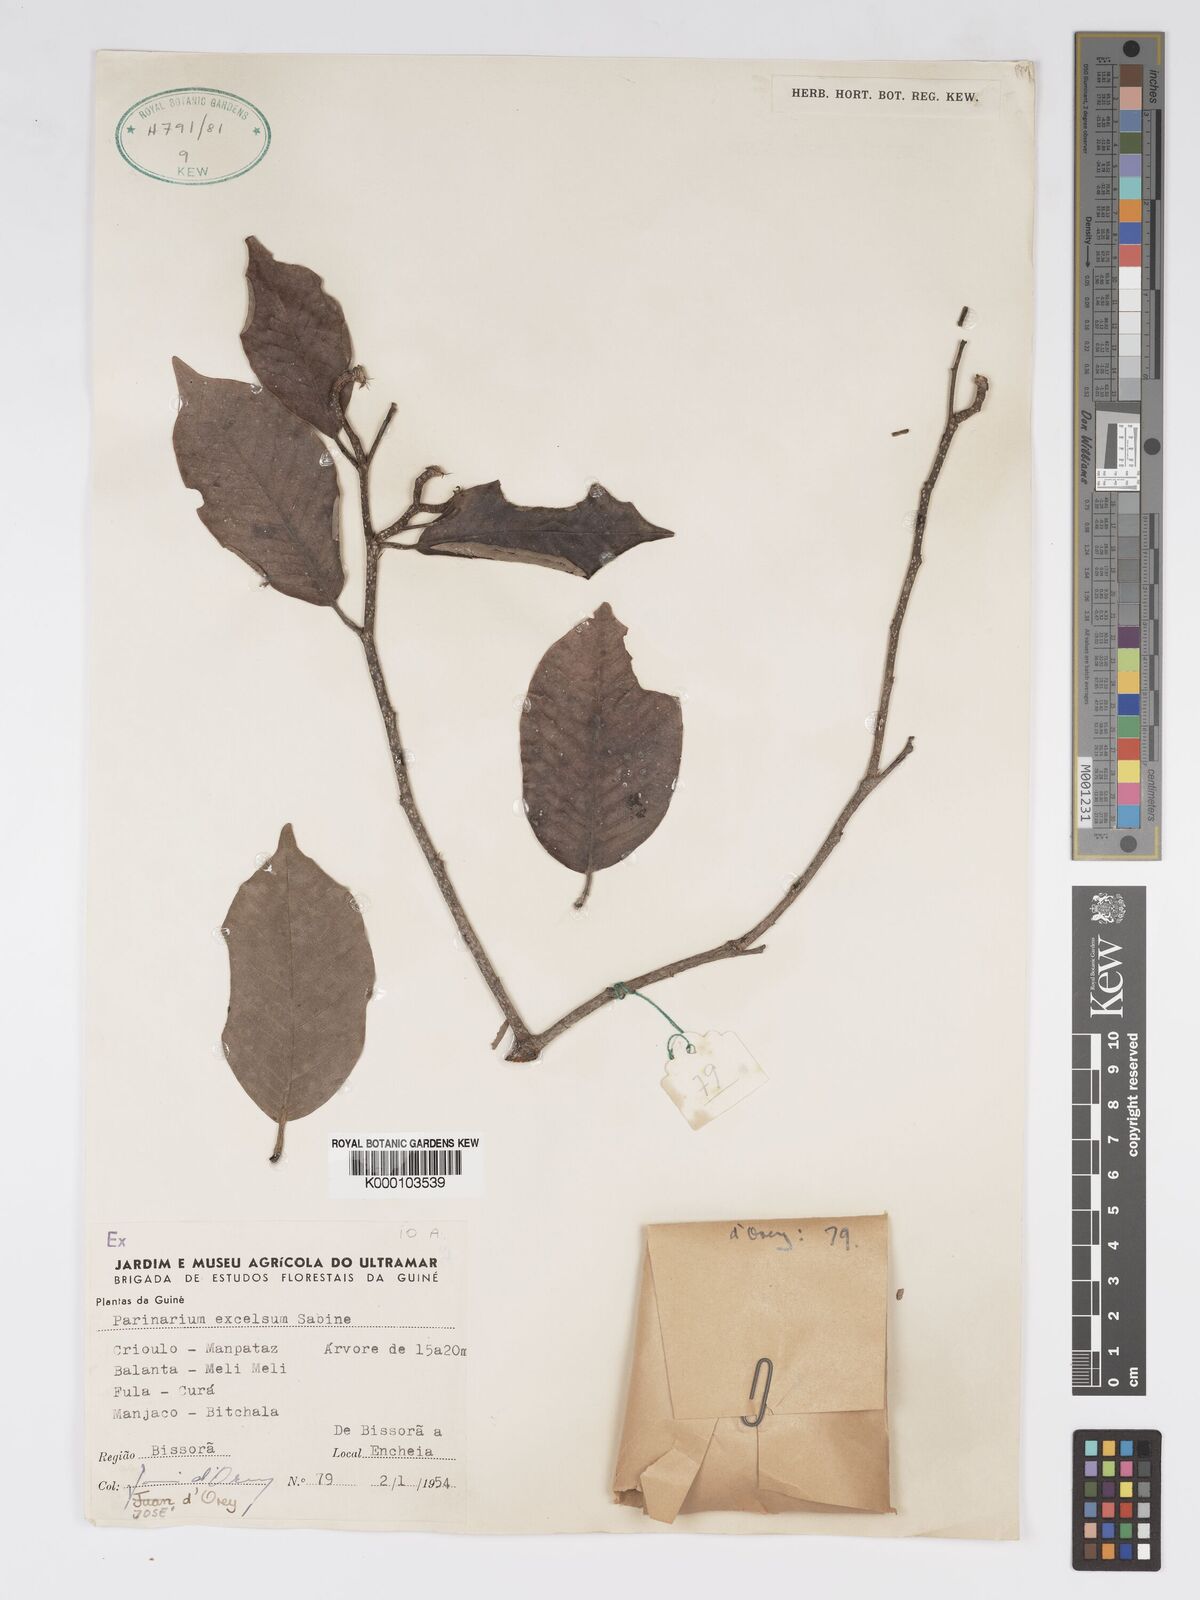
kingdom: Plantae
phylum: Tracheophyta
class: Magnoliopsida
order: Malpighiales
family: Chrysobalanaceae
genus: Parinari
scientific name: Parinari excelsa
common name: Guinea-plum
